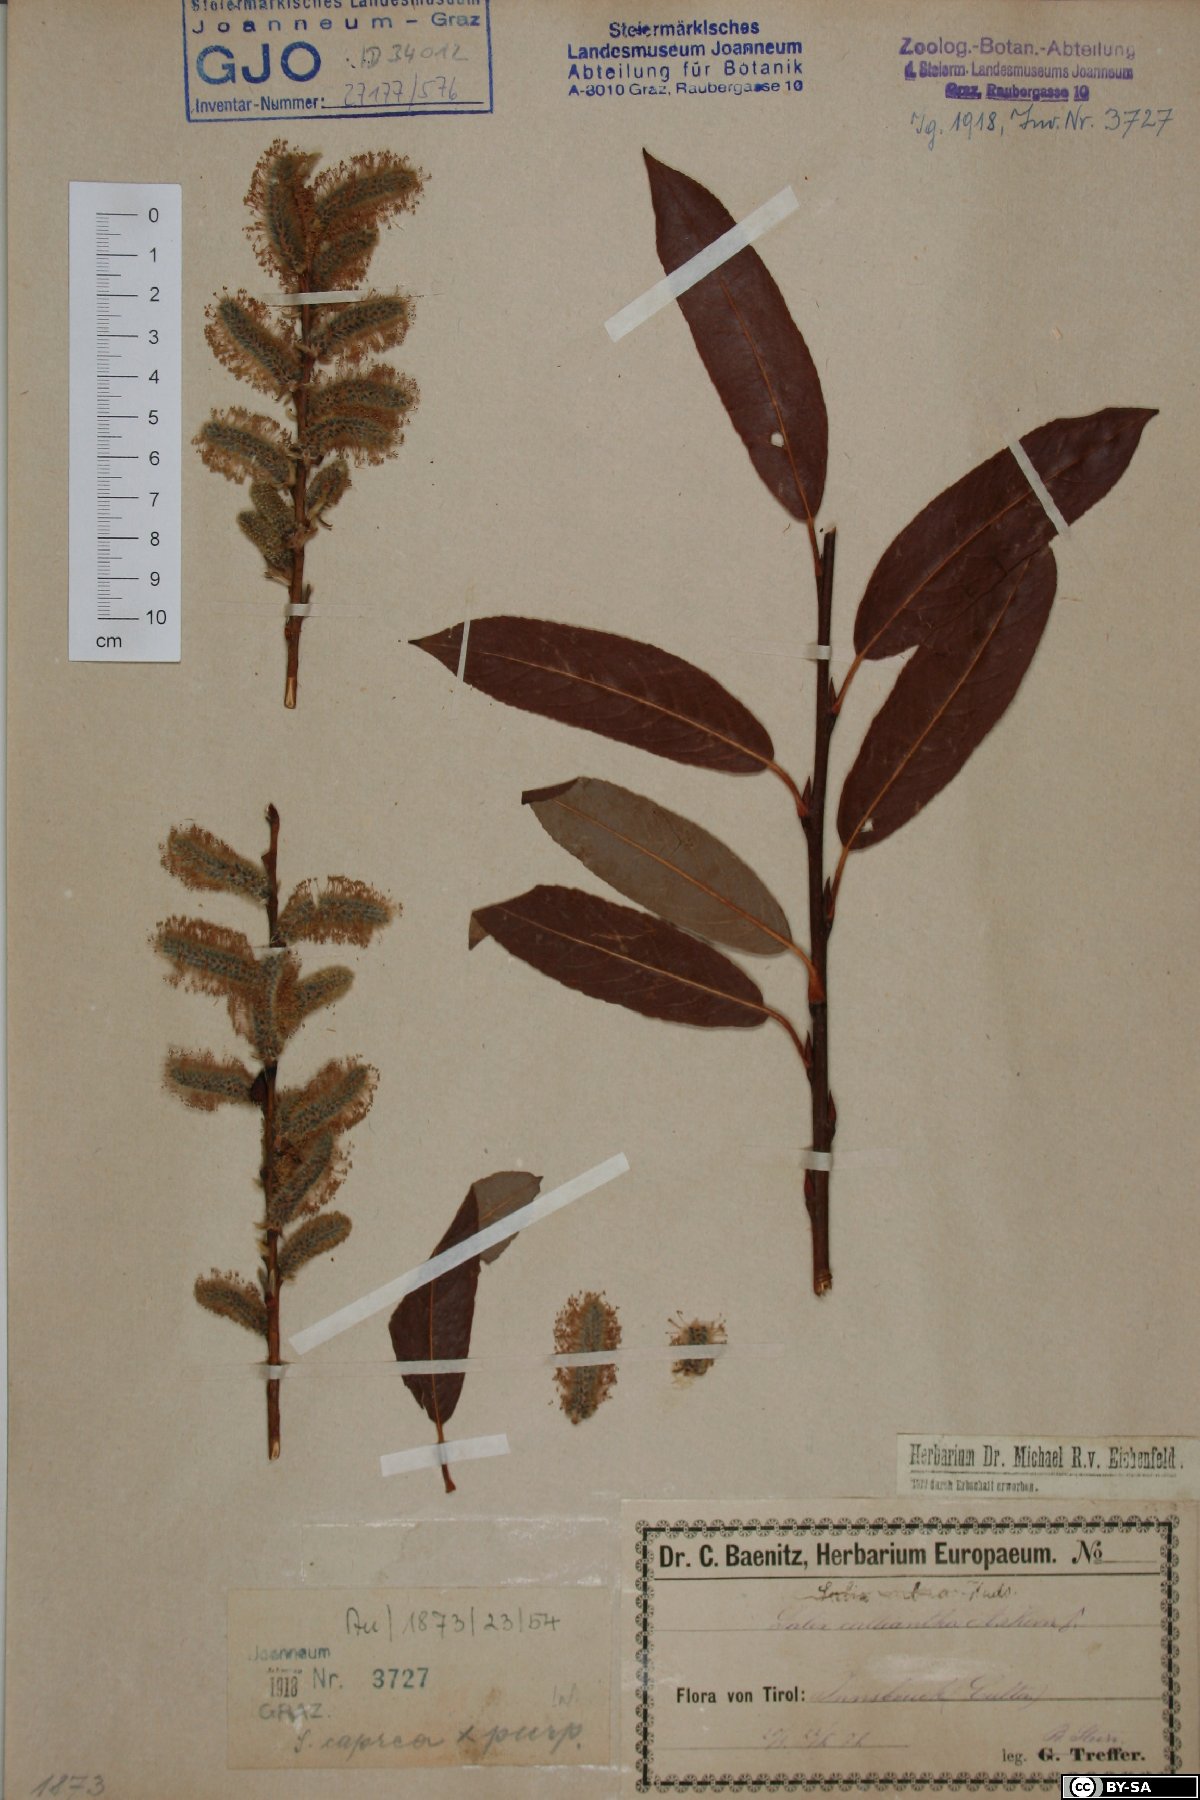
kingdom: Plantae
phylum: Tracheophyta
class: Magnoliopsida
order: Malpighiales
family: Salicaceae
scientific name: Salicaceae
